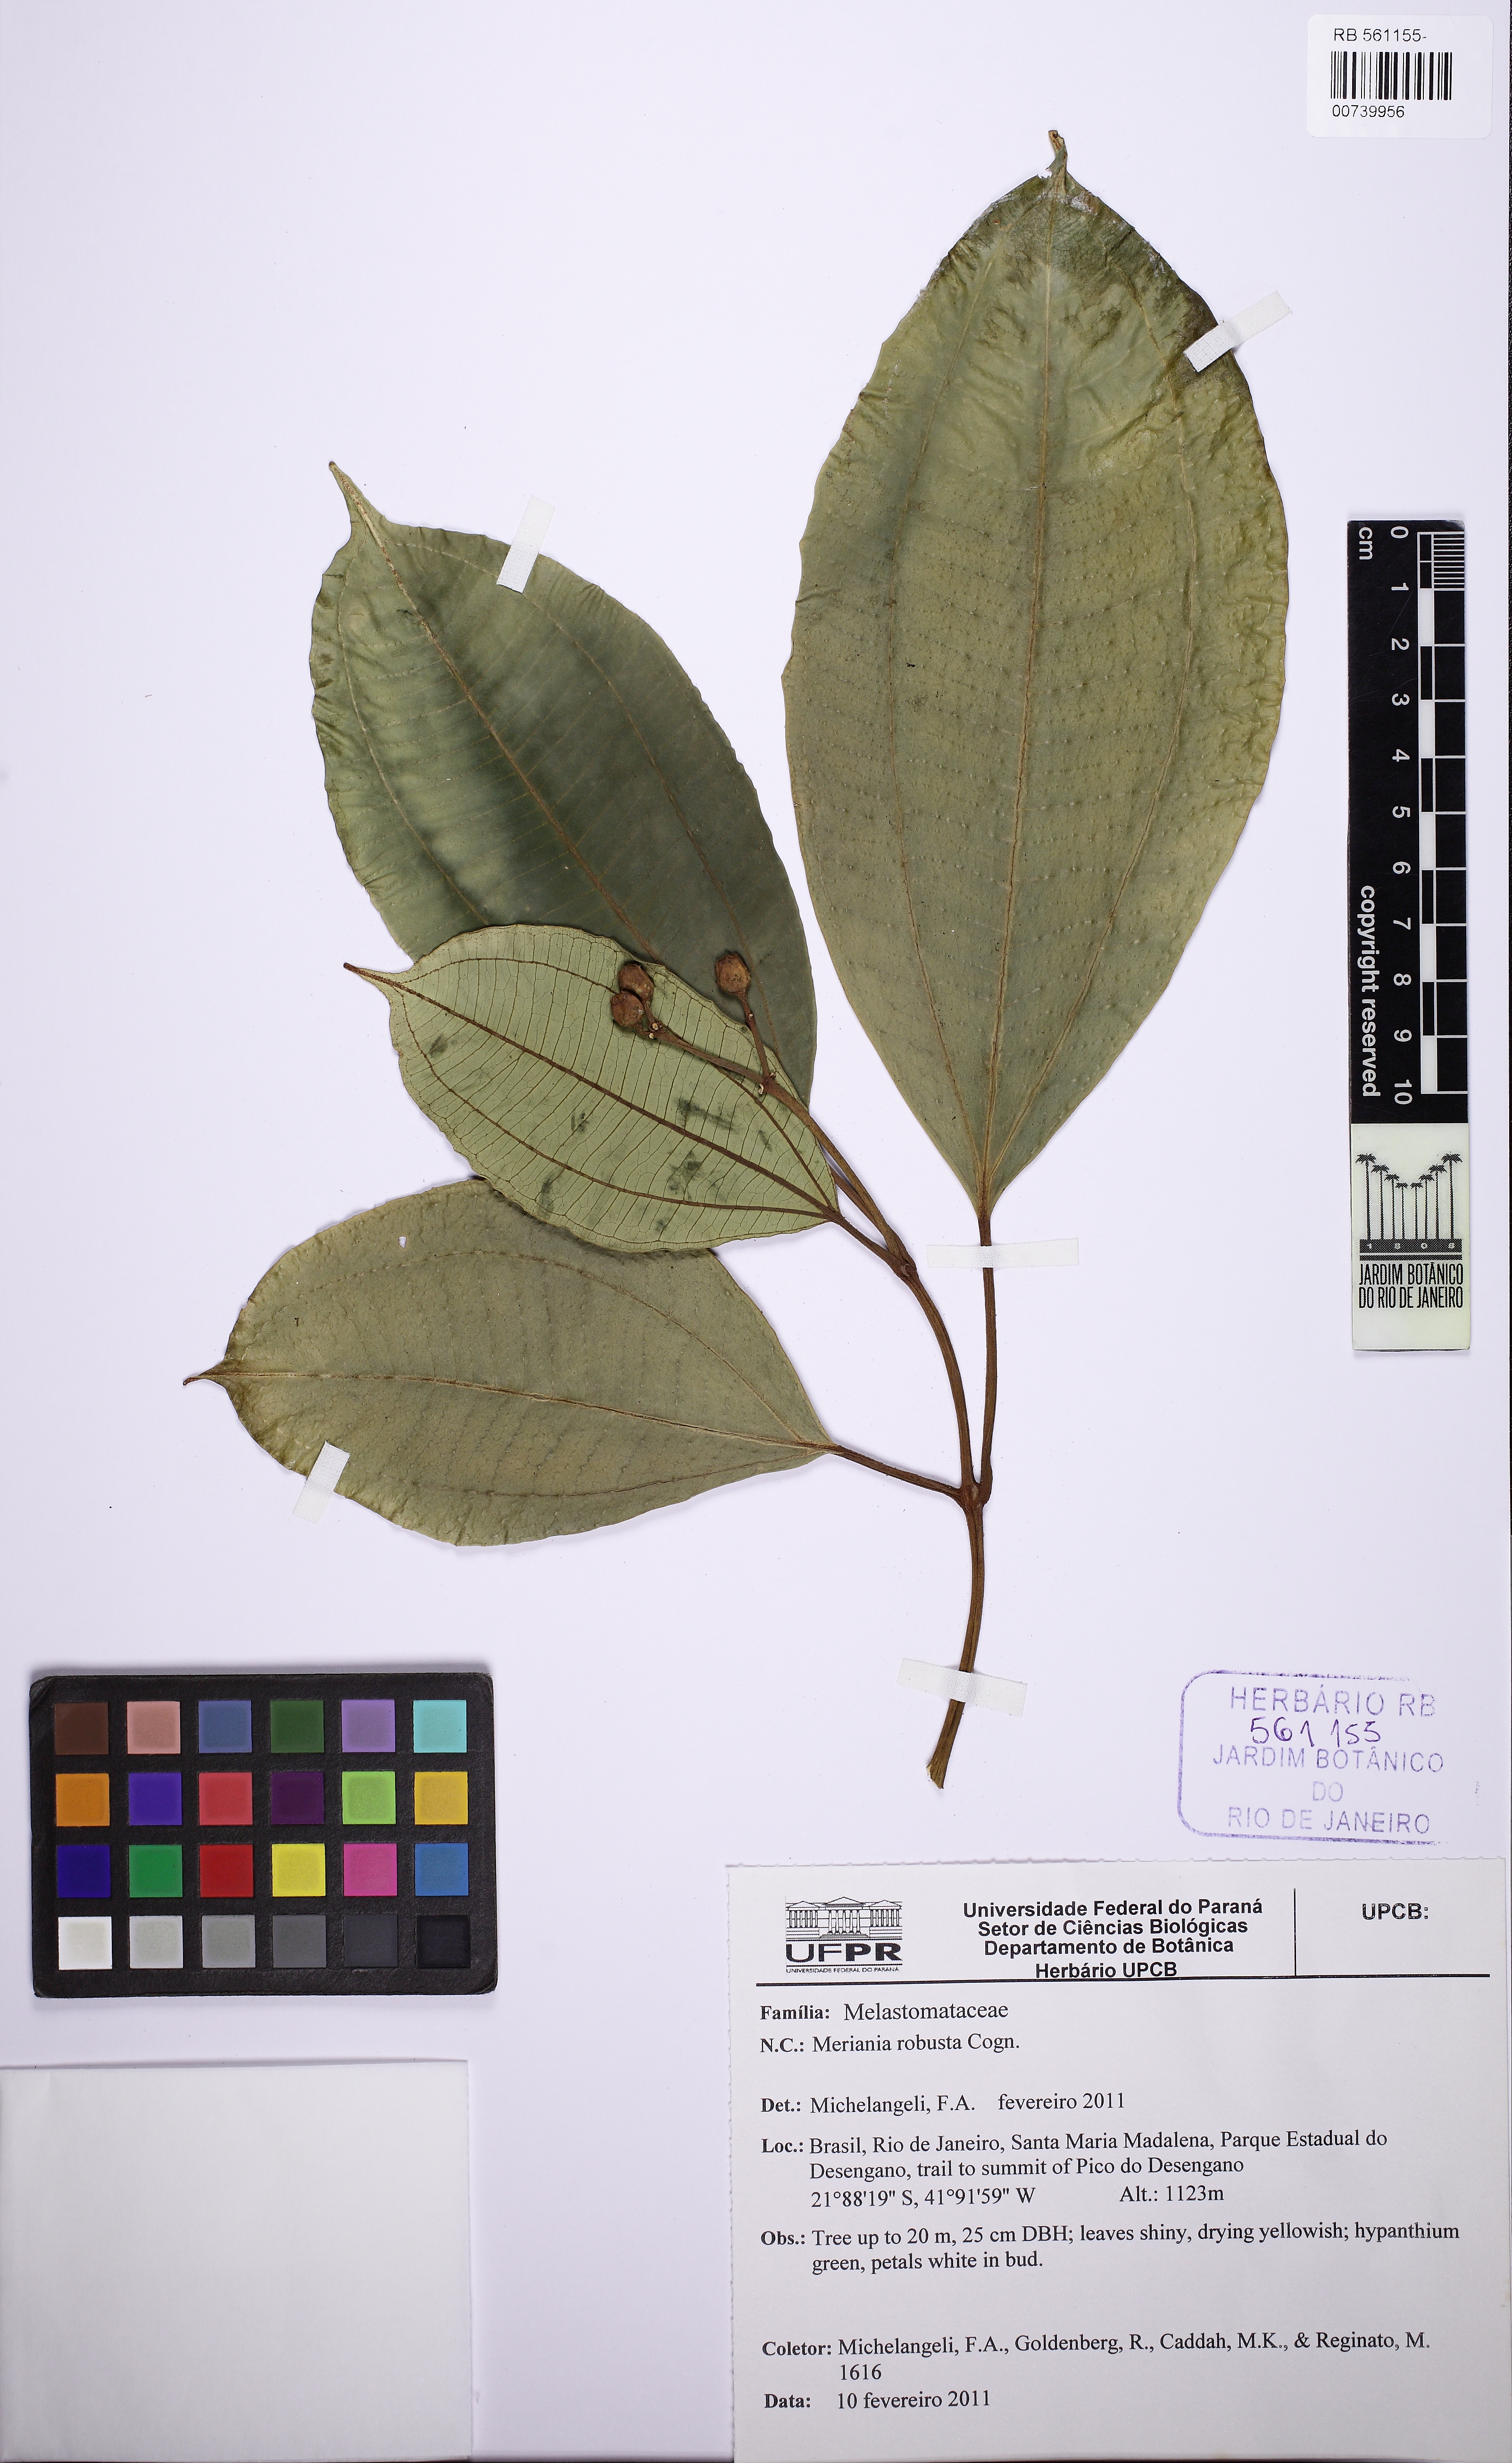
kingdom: Plantae
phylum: Tracheophyta
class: Magnoliopsida
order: Myrtales
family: Melastomataceae
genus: Meriania
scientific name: Meriania robusta
